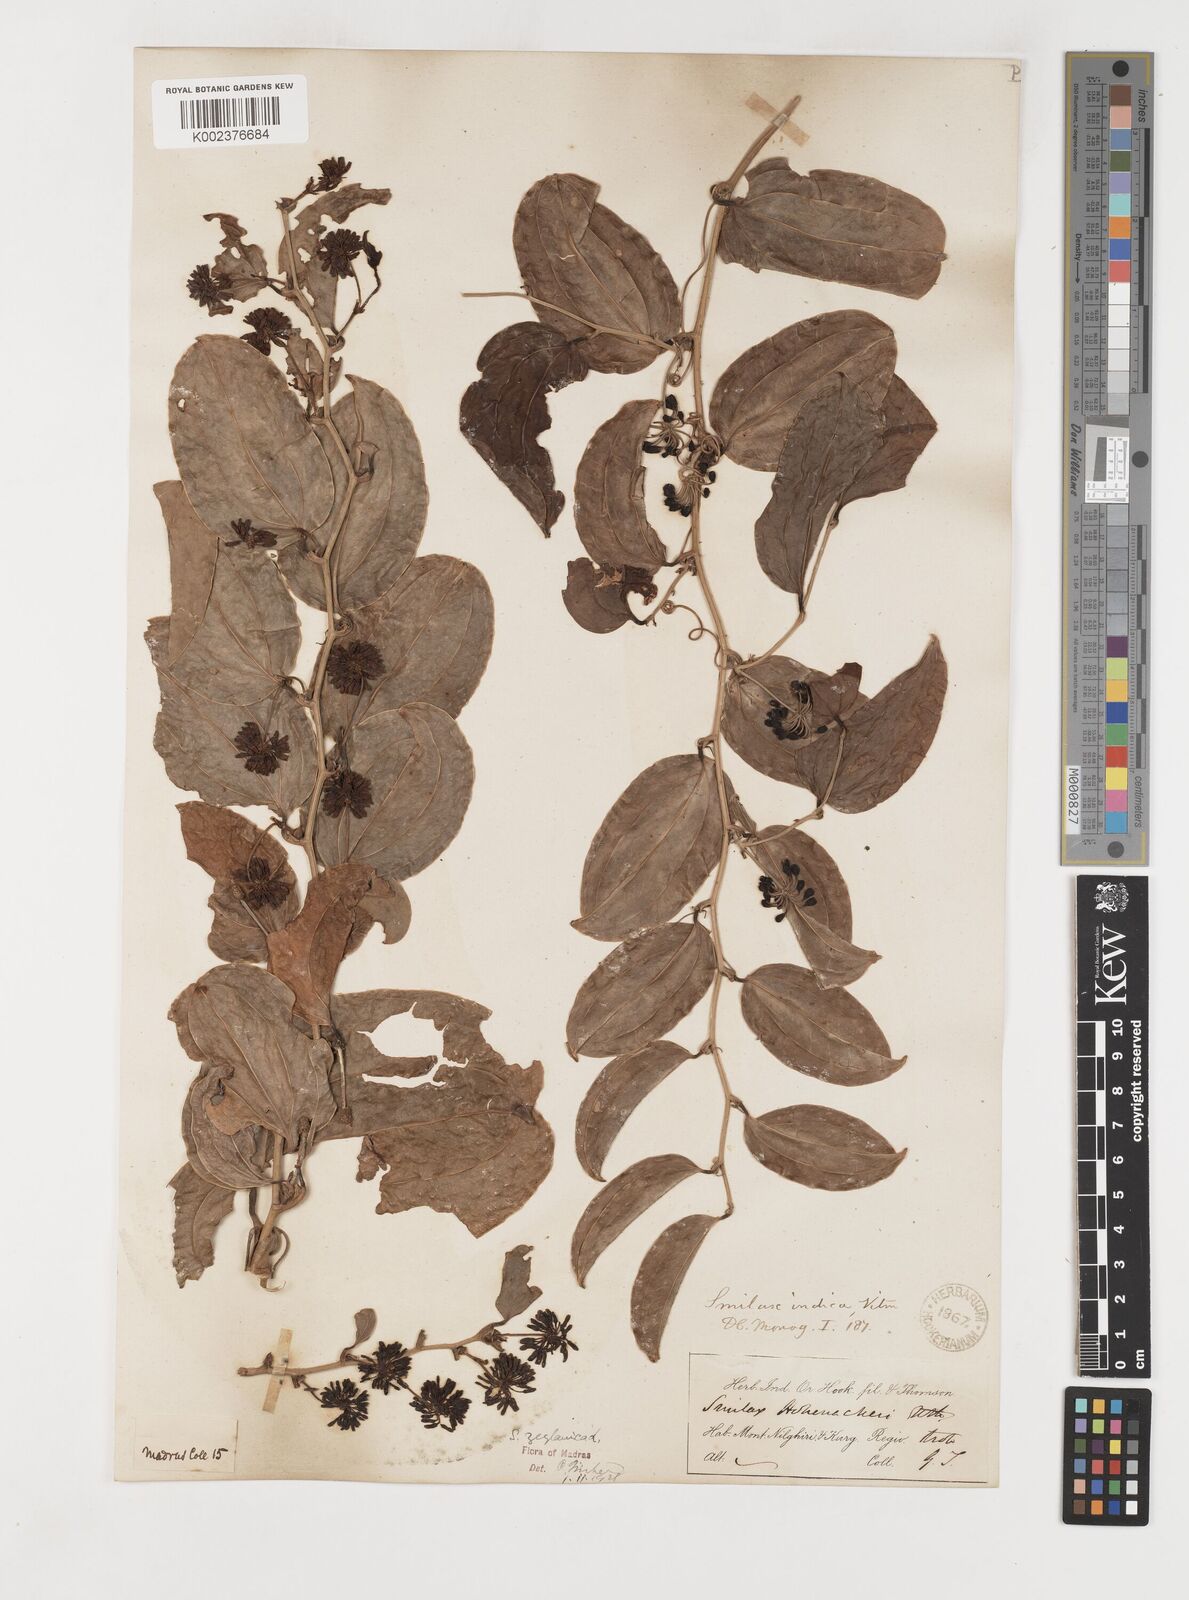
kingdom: Plantae
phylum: Tracheophyta
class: Liliopsida
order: Liliales
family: Smilacaceae
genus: Smilax
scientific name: Smilax zeylanica
